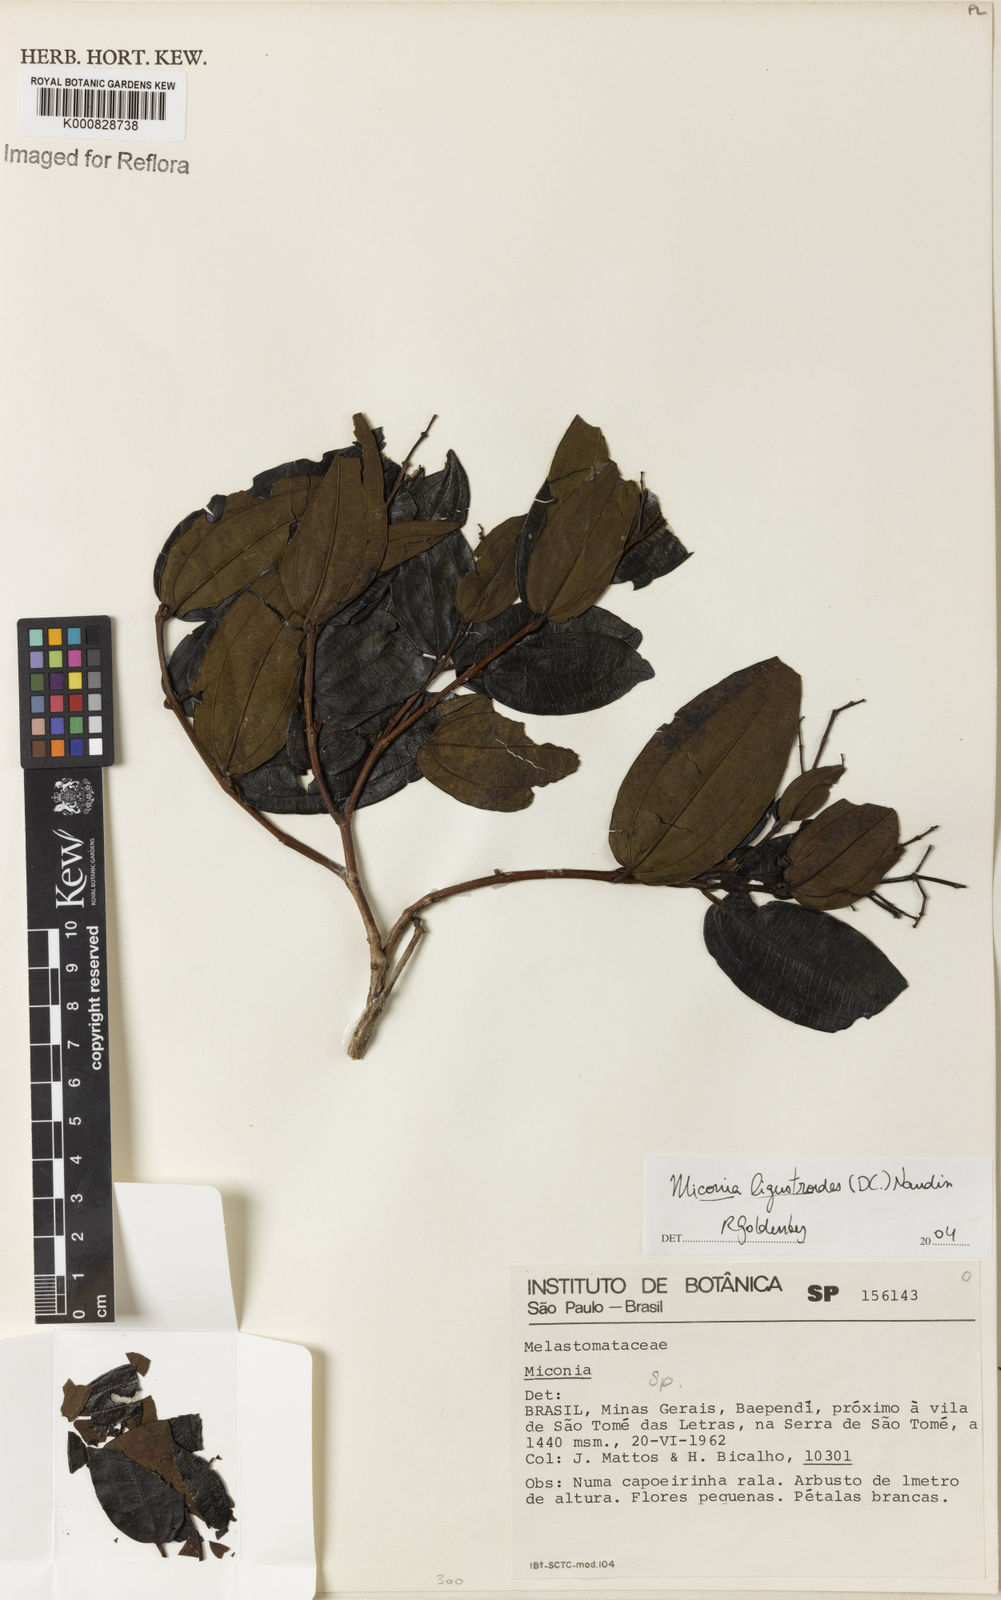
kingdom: Plantae
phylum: Tracheophyta
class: Magnoliopsida
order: Myrtales
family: Melastomataceae
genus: Miconia
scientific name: Miconia ligustroides
